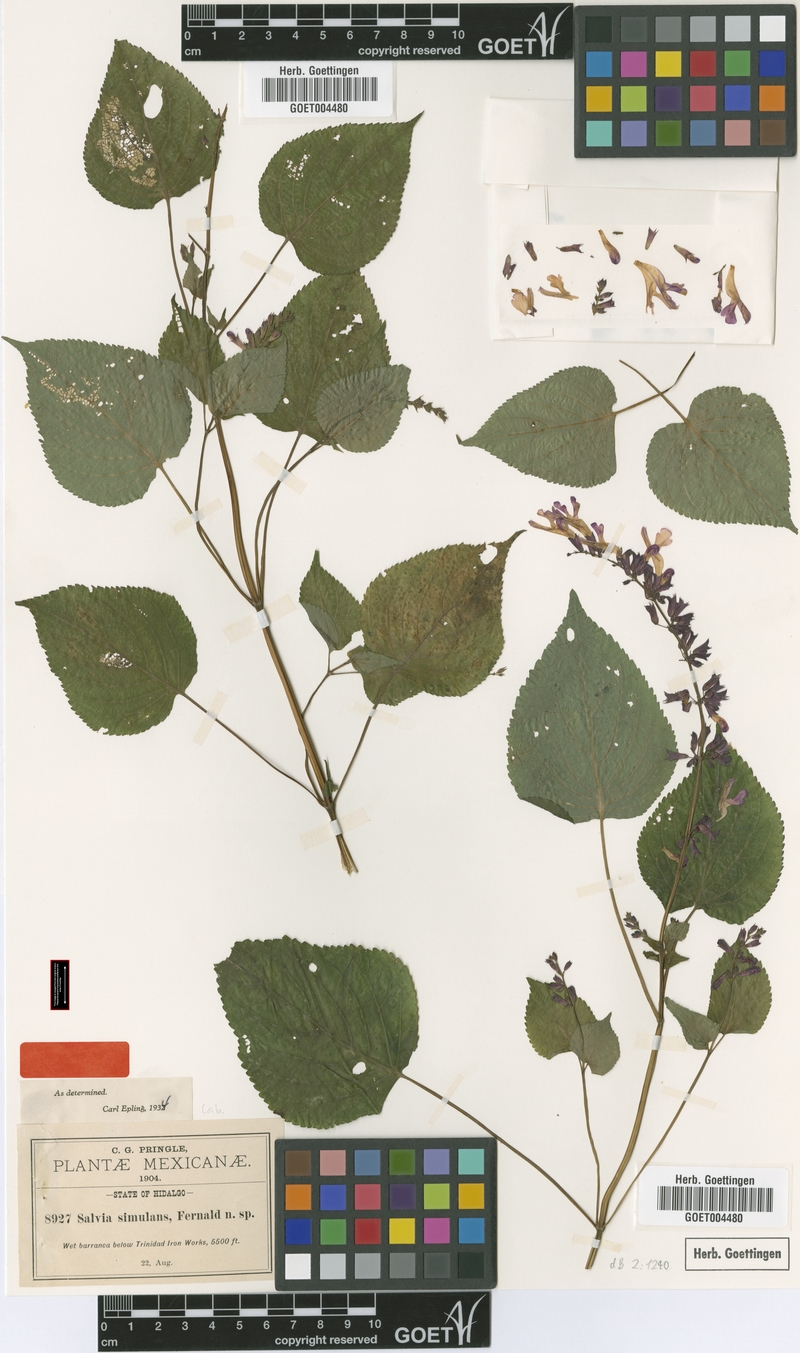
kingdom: Plantae
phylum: Tracheophyta
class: Magnoliopsida
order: Lamiales
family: Lamiaceae
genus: Salvia
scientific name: Salvia carnea
